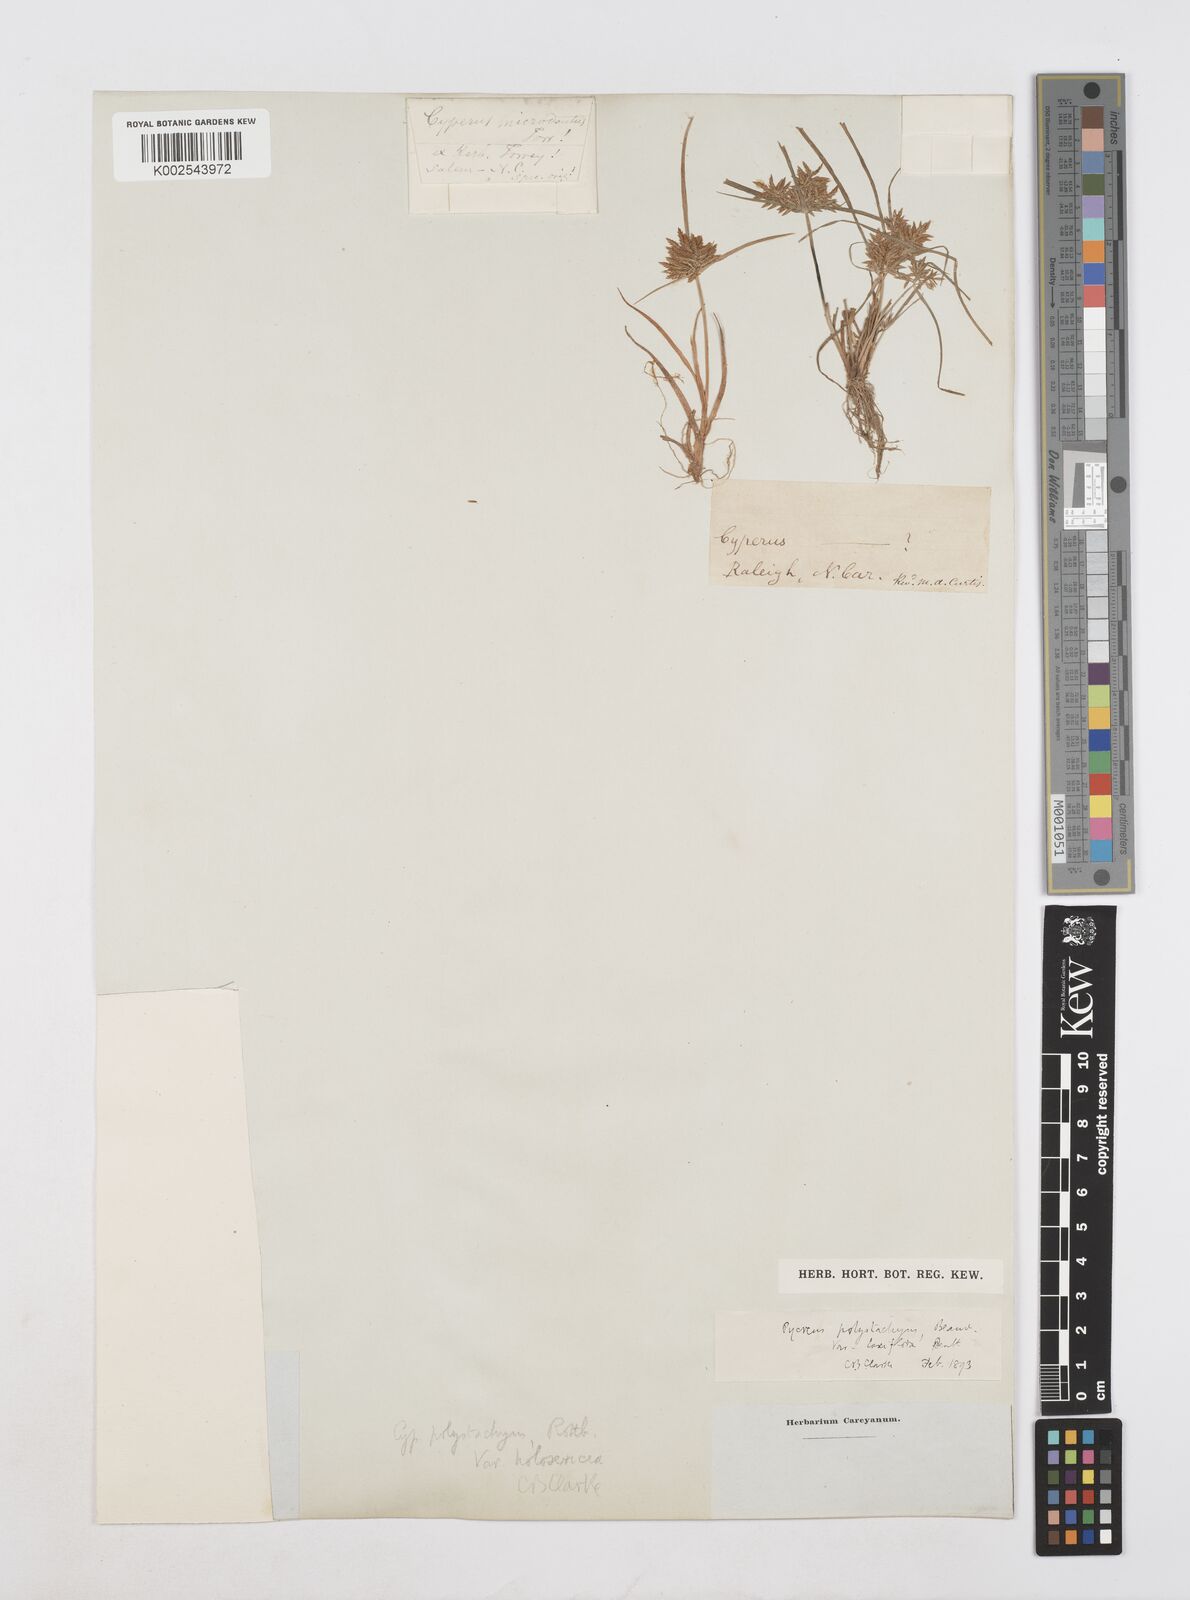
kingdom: Plantae
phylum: Tracheophyta
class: Liliopsida
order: Poales
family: Cyperaceae
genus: Cyperus
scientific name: Cyperus polystachyos
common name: Bunchy flat sedge
